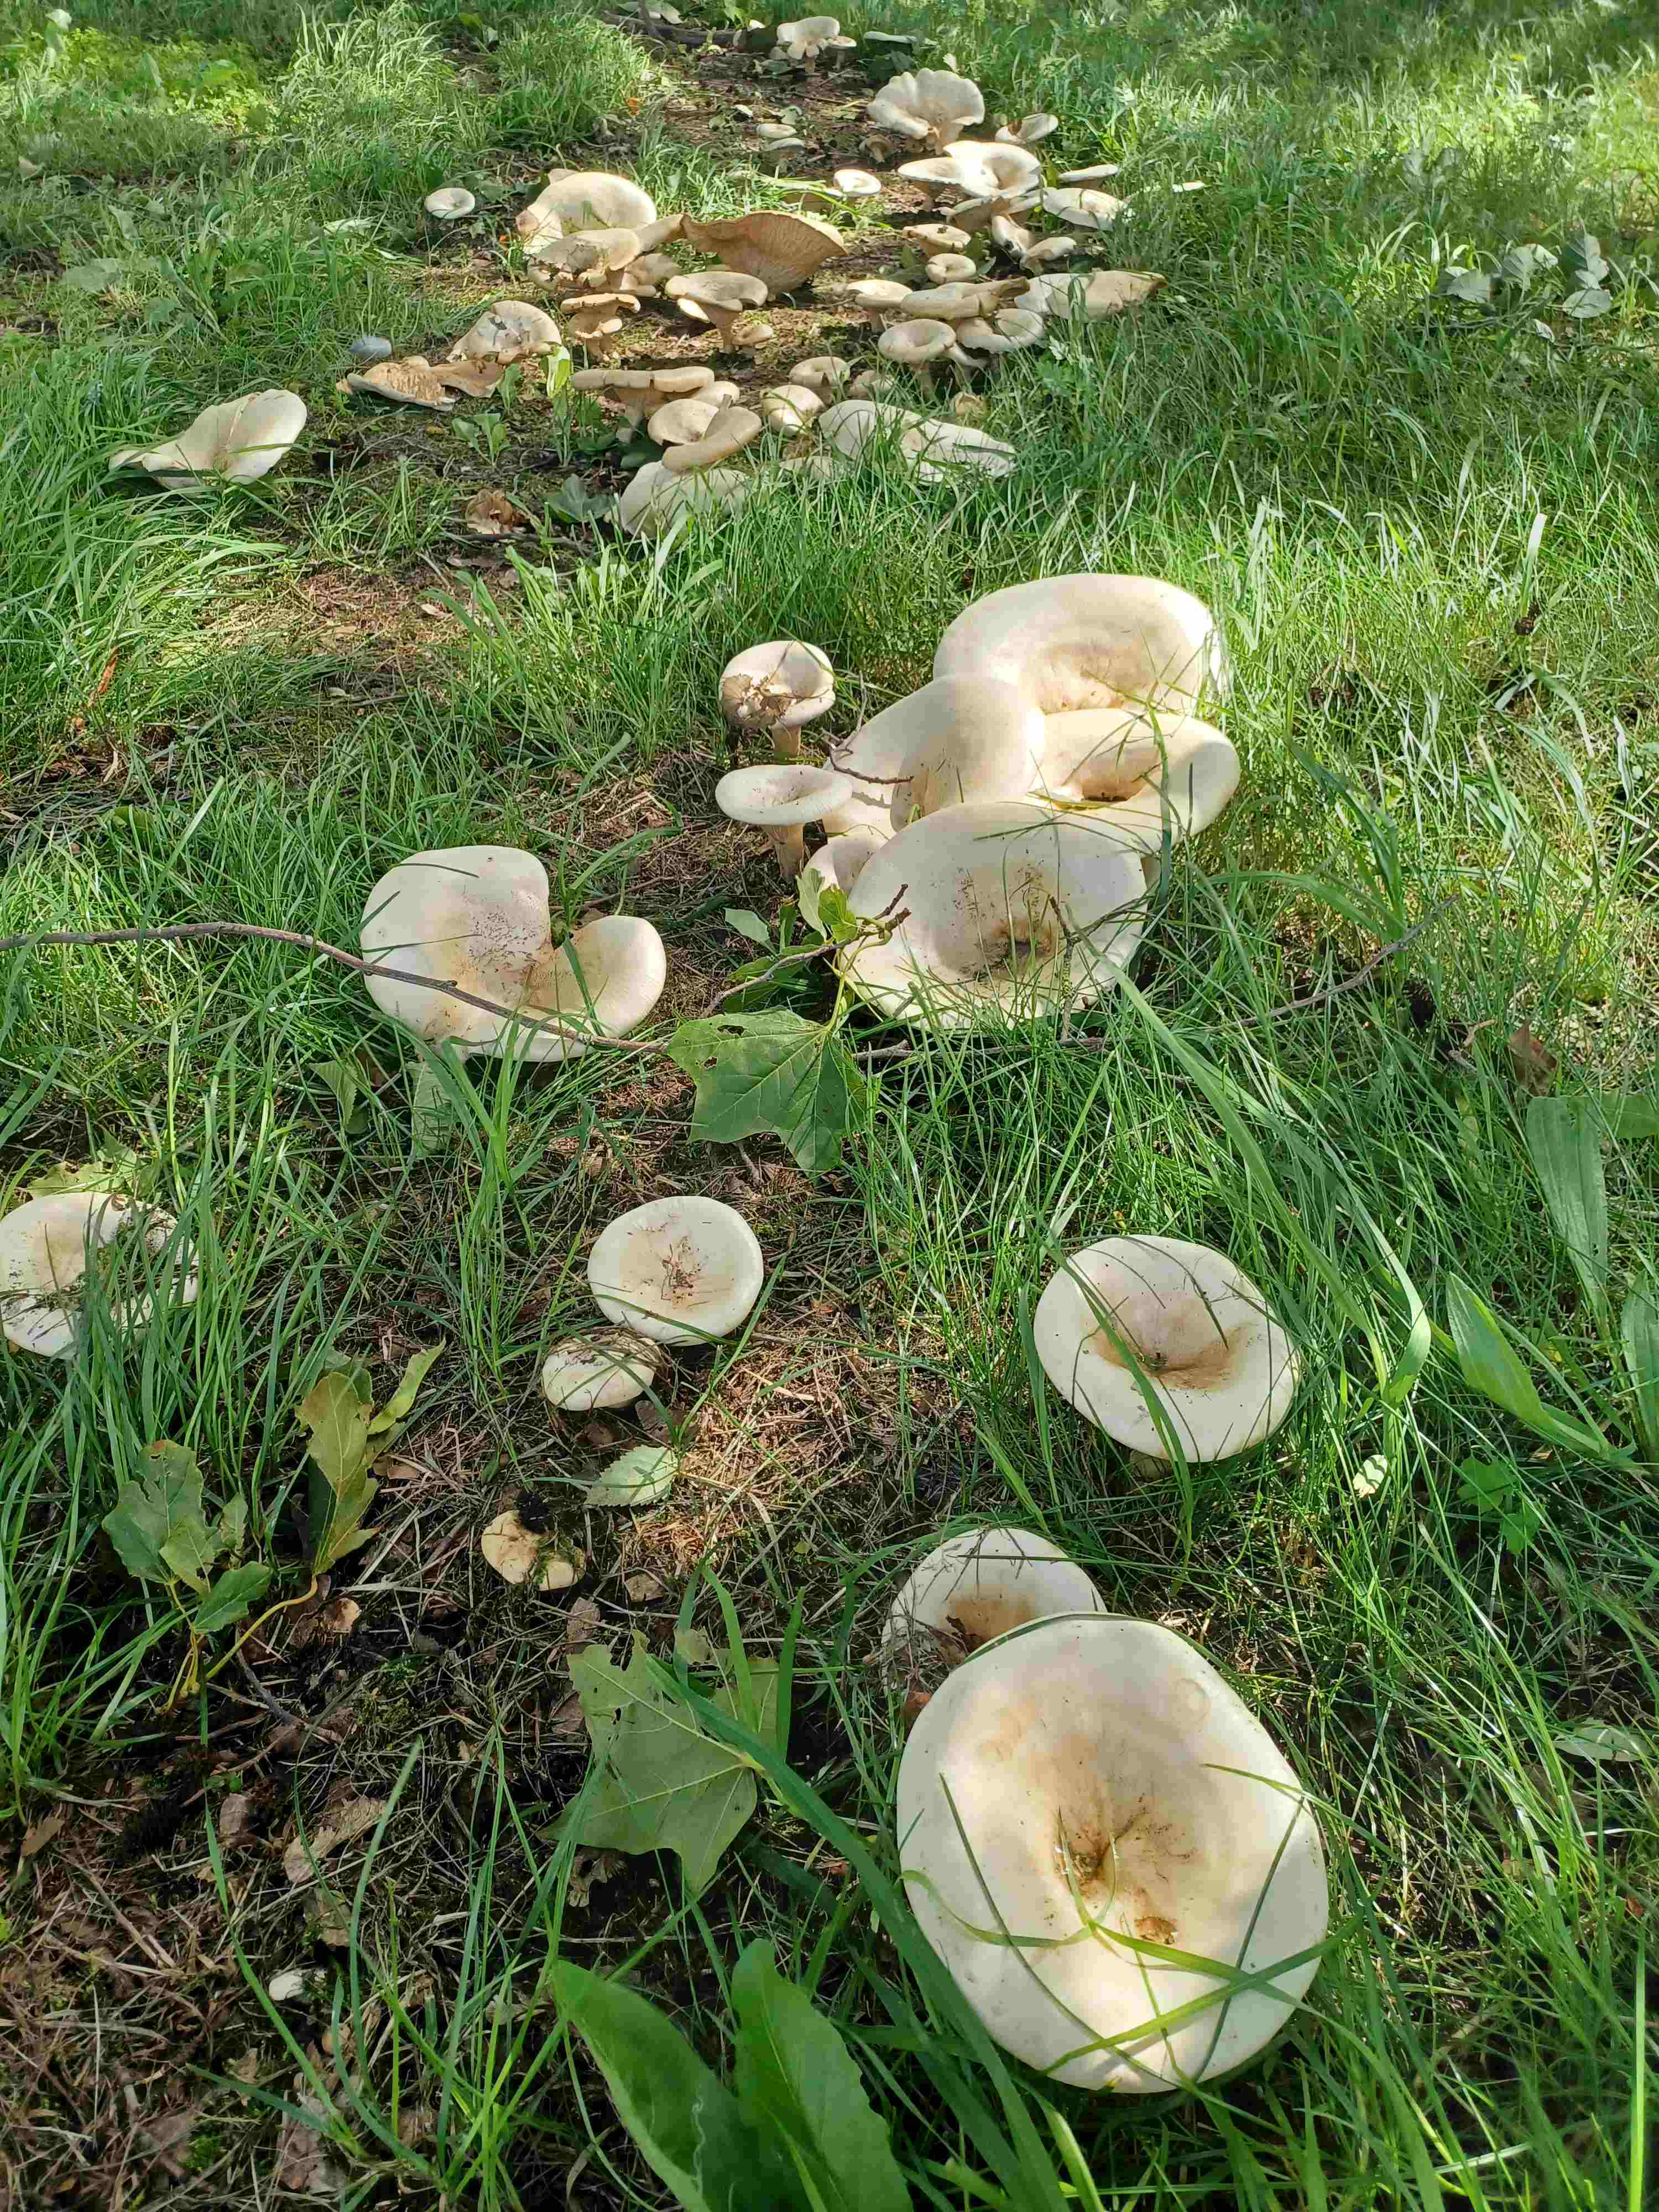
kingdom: Fungi
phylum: Basidiomycota
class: Agaricomycetes
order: Agaricales
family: Tricholomataceae
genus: Aspropaxillus
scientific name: Aspropaxillus giganteus
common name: kæmpe-tragtridderhat
